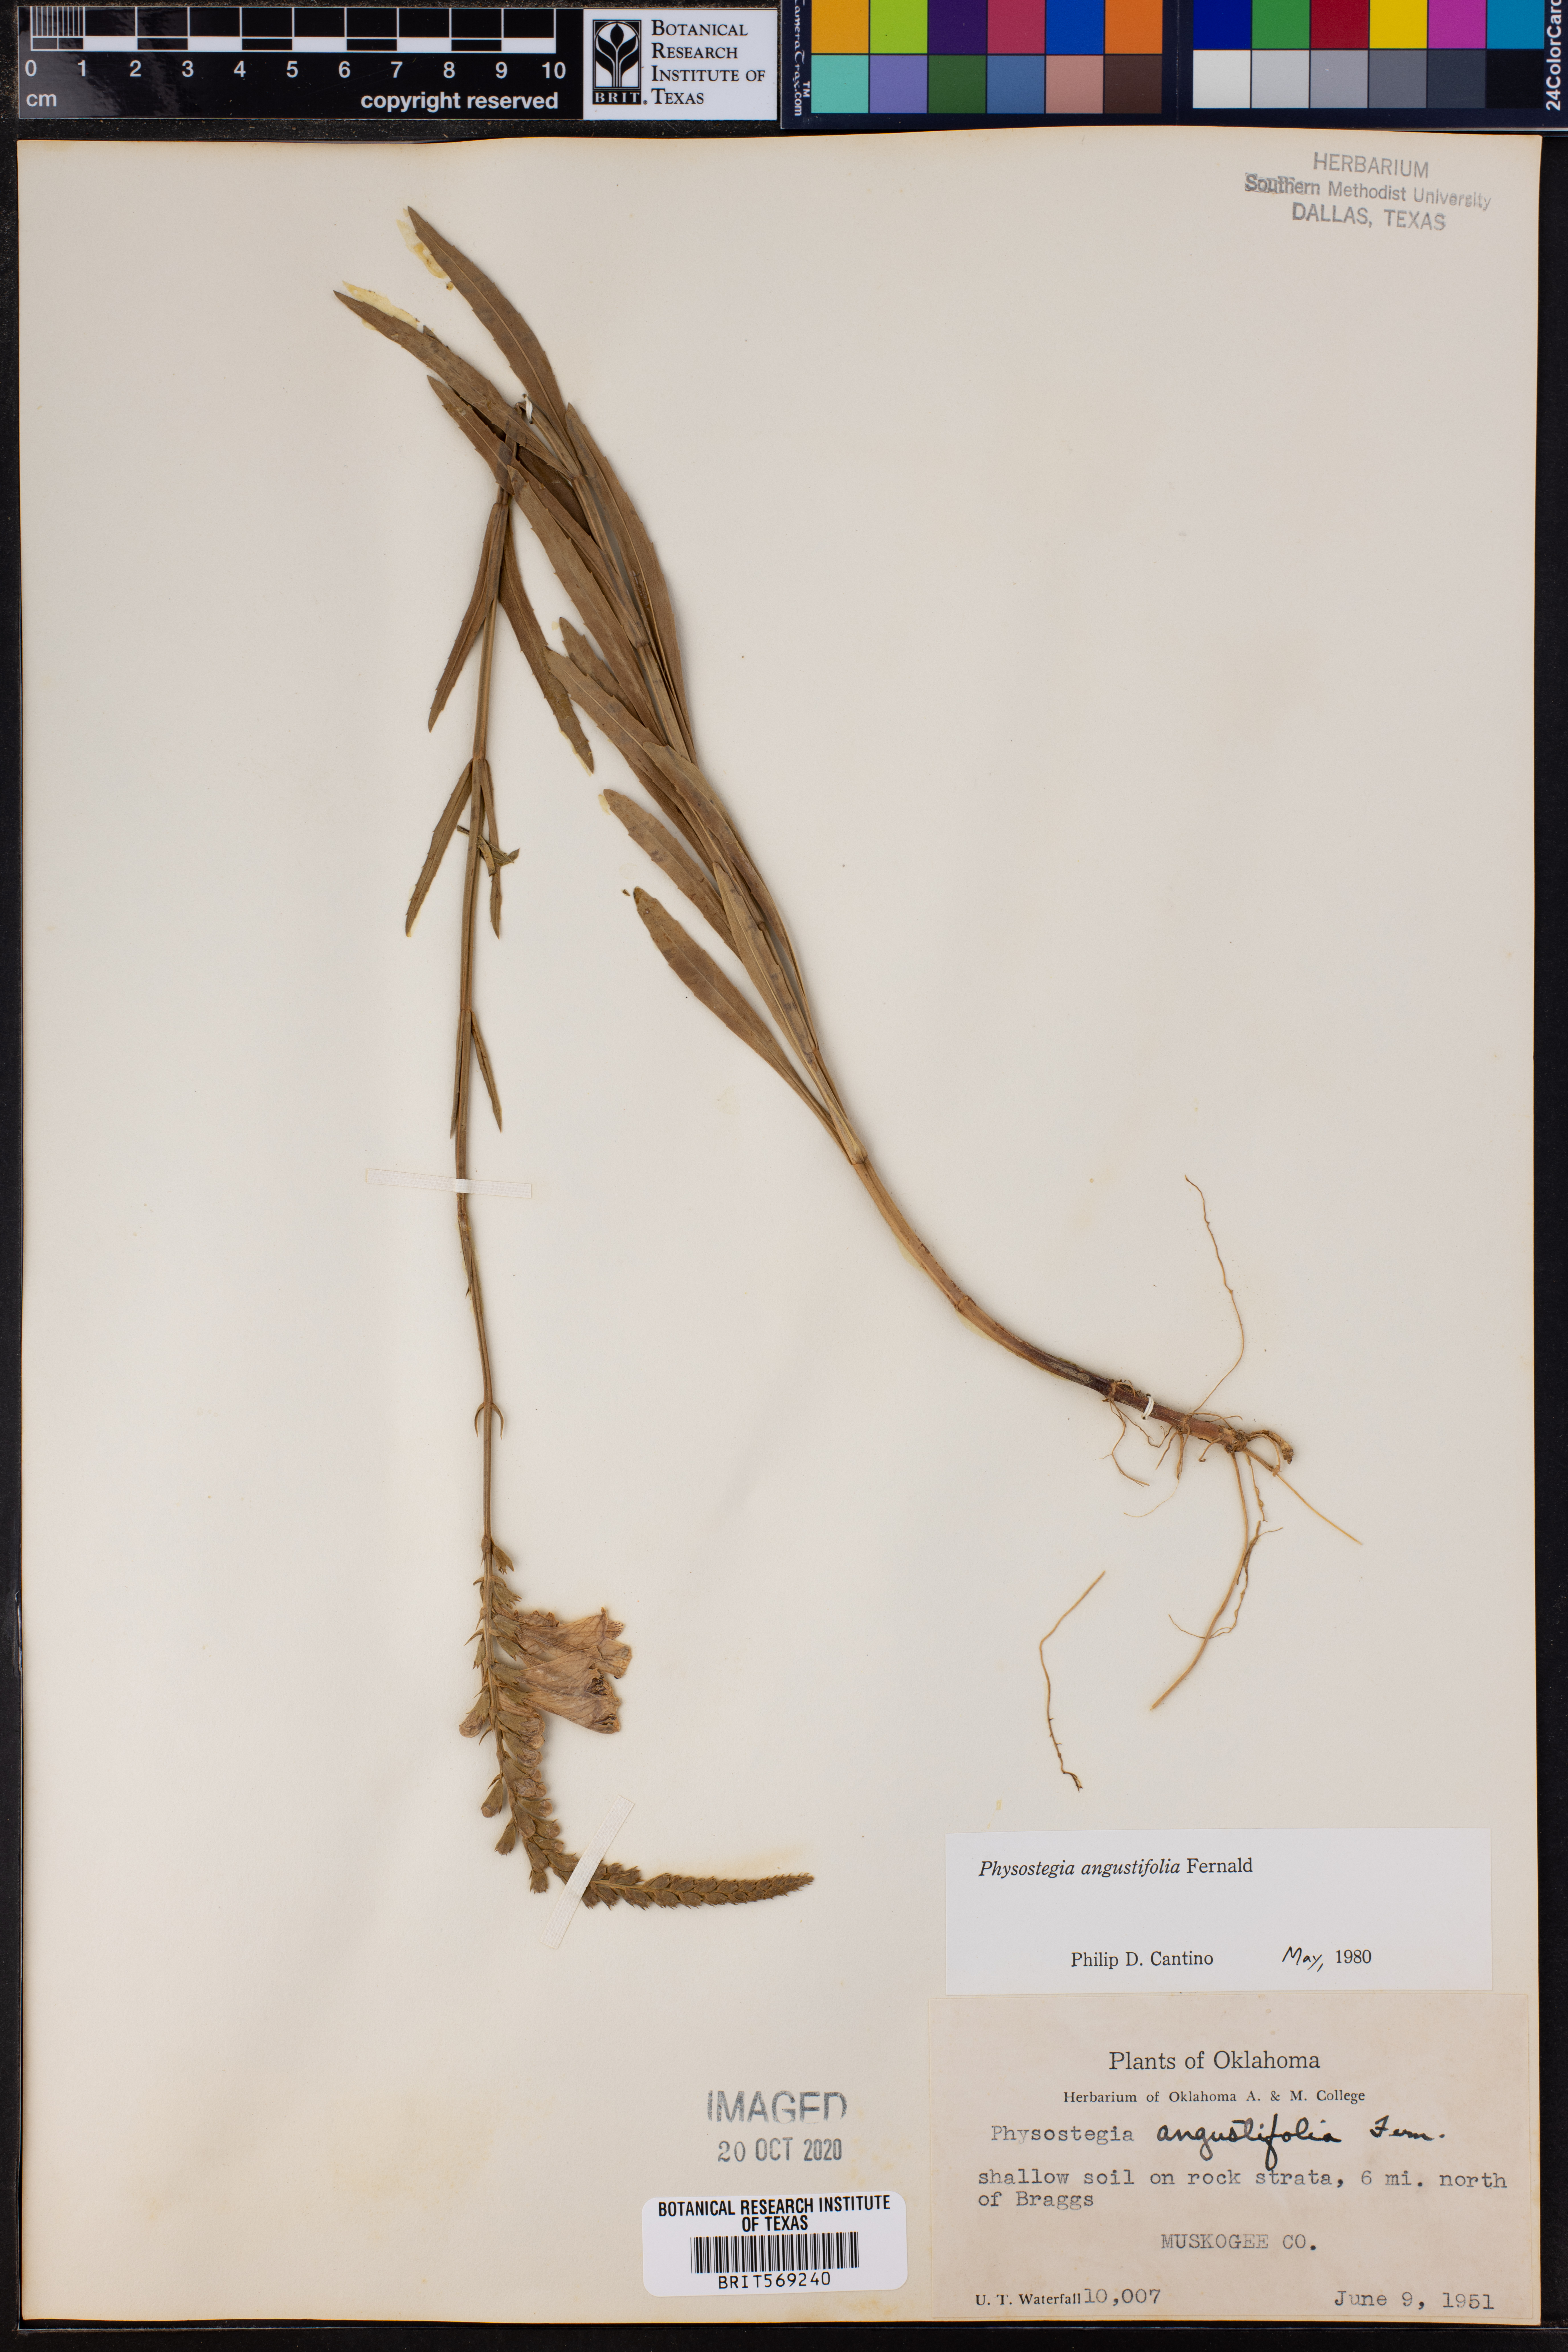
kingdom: Plantae
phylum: Tracheophyta
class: Magnoliopsida
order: Lamiales
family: Lamiaceae
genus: Physostegia
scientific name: Physostegia angustifolia
